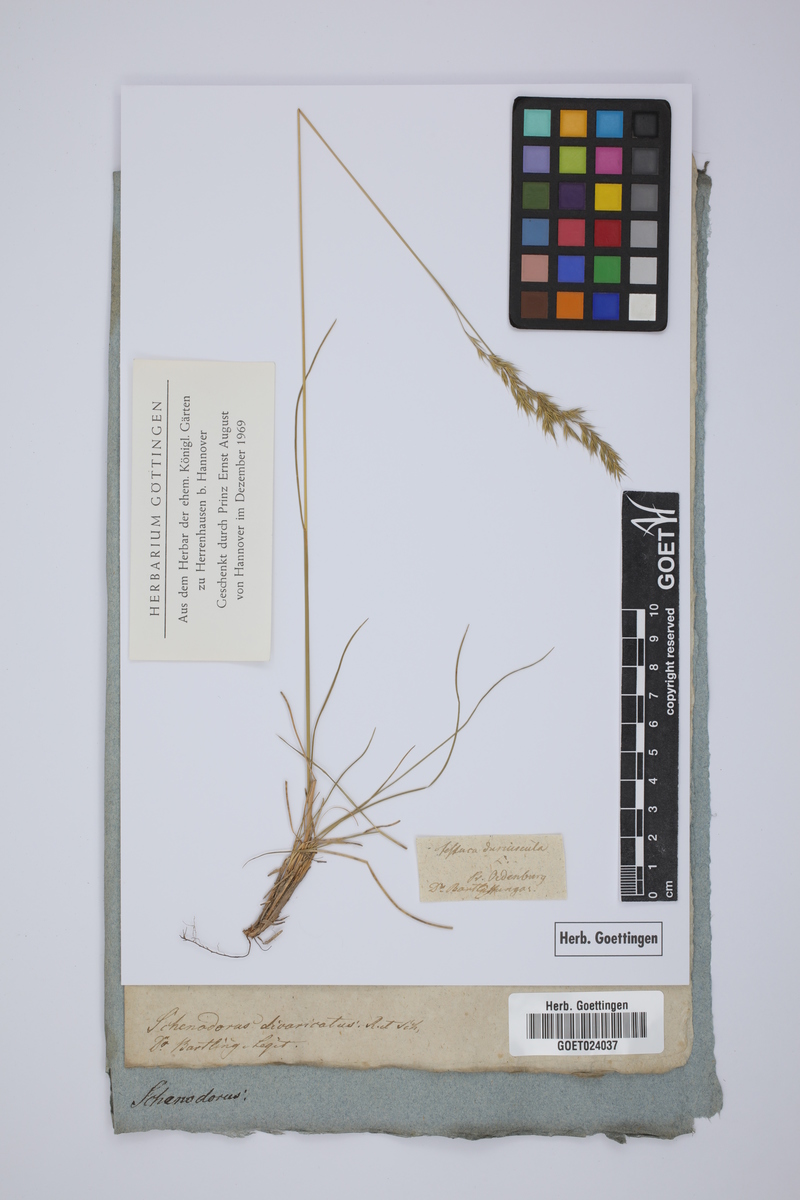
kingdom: Plantae
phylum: Tracheophyta
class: Liliopsida
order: Poales
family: Poaceae
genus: Cutandia
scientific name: Cutandia divaricata
